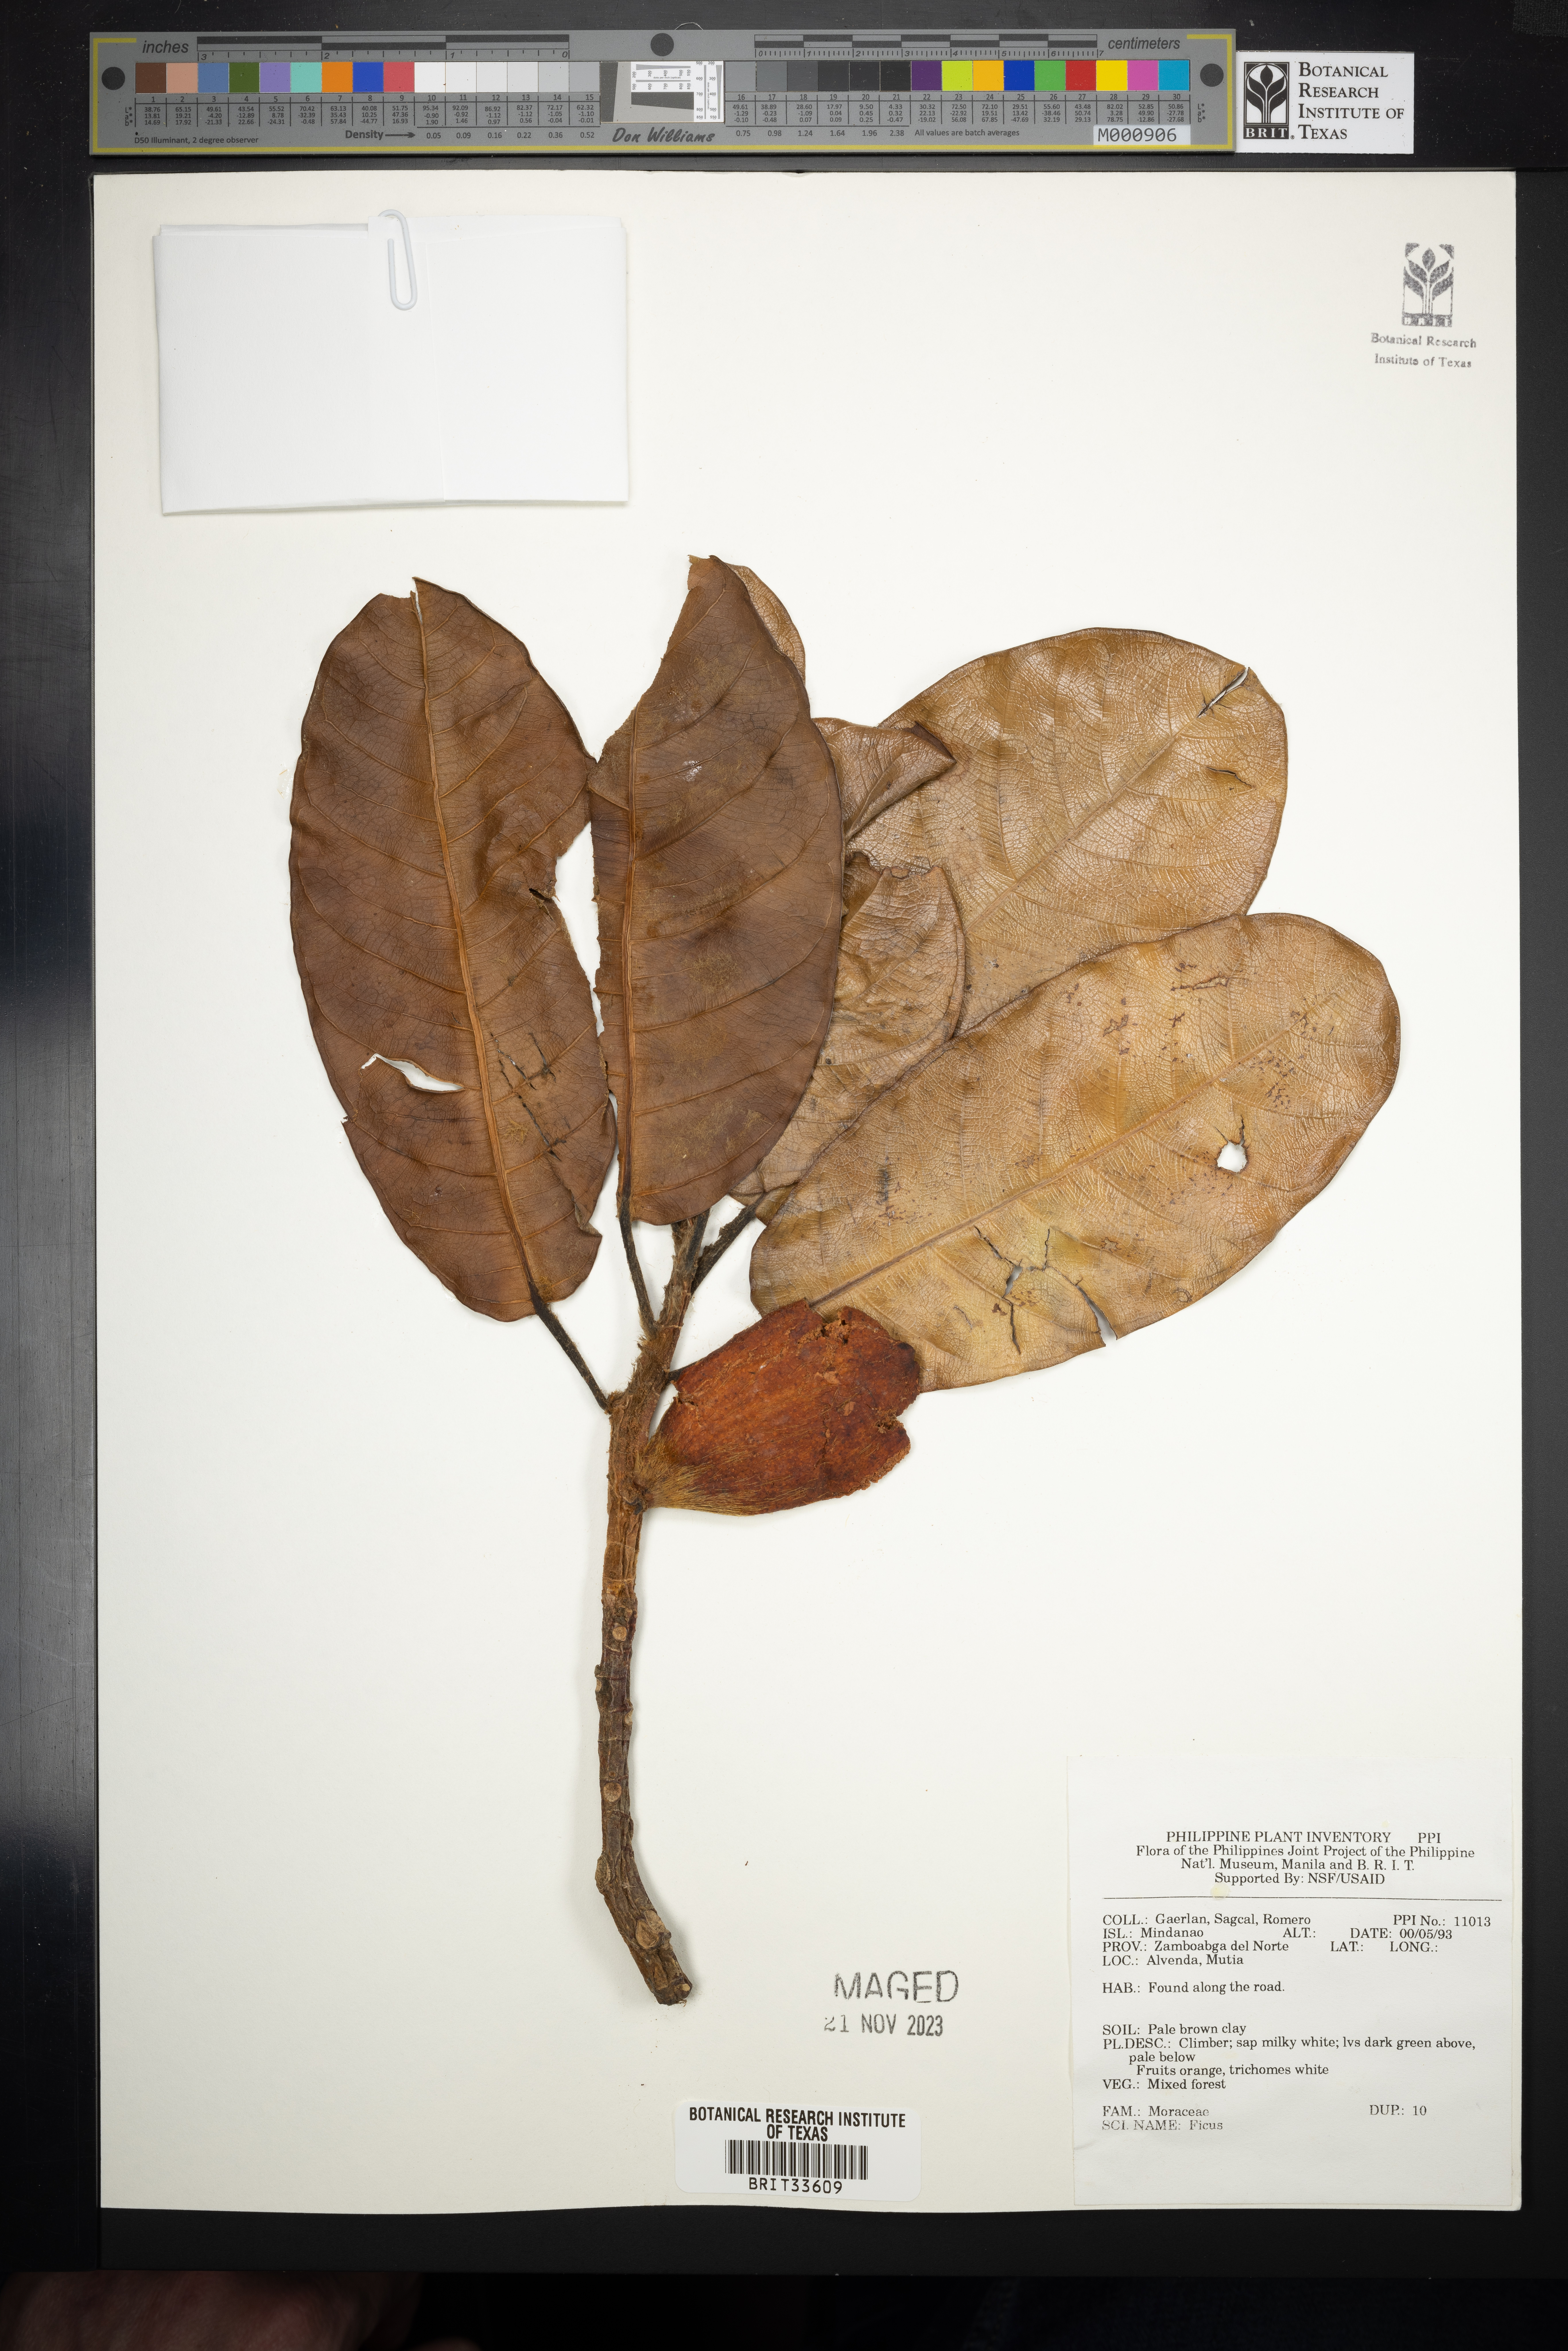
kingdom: Plantae
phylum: Tracheophyta
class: Magnoliopsida
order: Rosales
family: Moraceae
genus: Ficus
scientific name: Ficus
